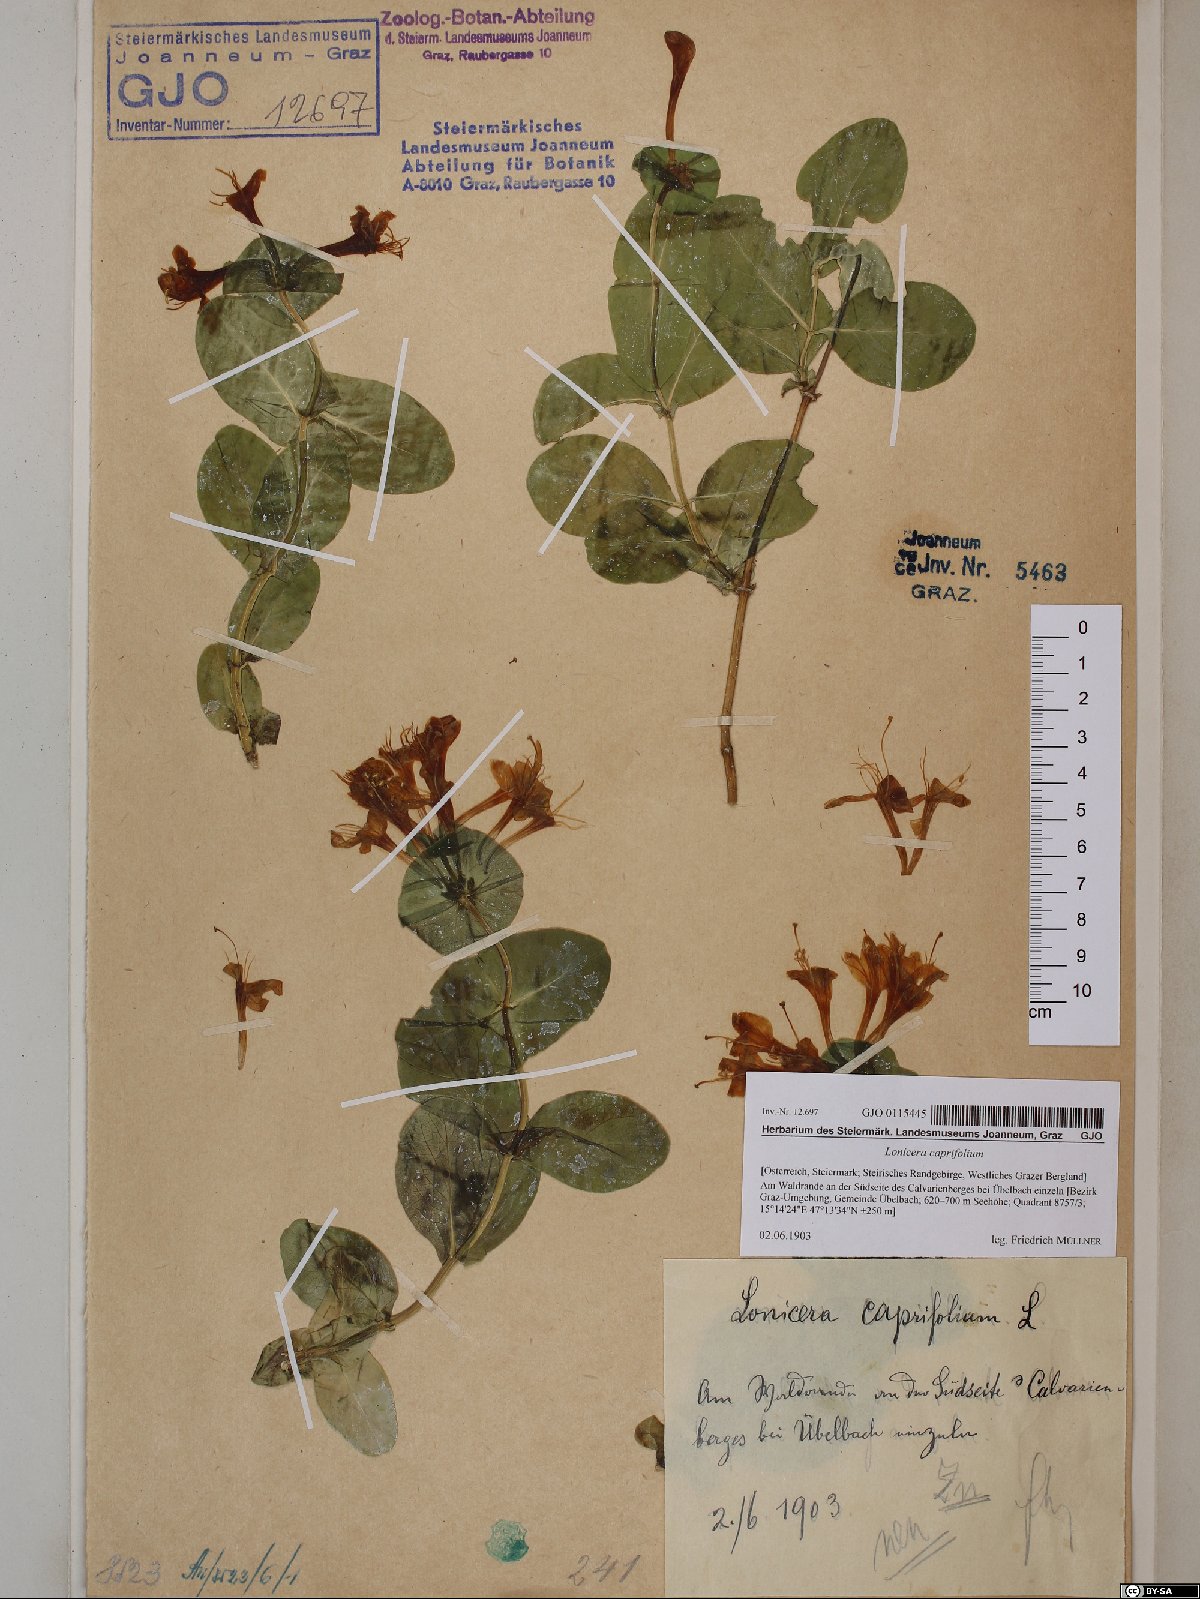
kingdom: Plantae
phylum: Tracheophyta
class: Magnoliopsida
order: Dipsacales
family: Caprifoliaceae
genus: Lonicera
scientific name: Lonicera caprifolium
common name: Perfoliate honeysuckle
